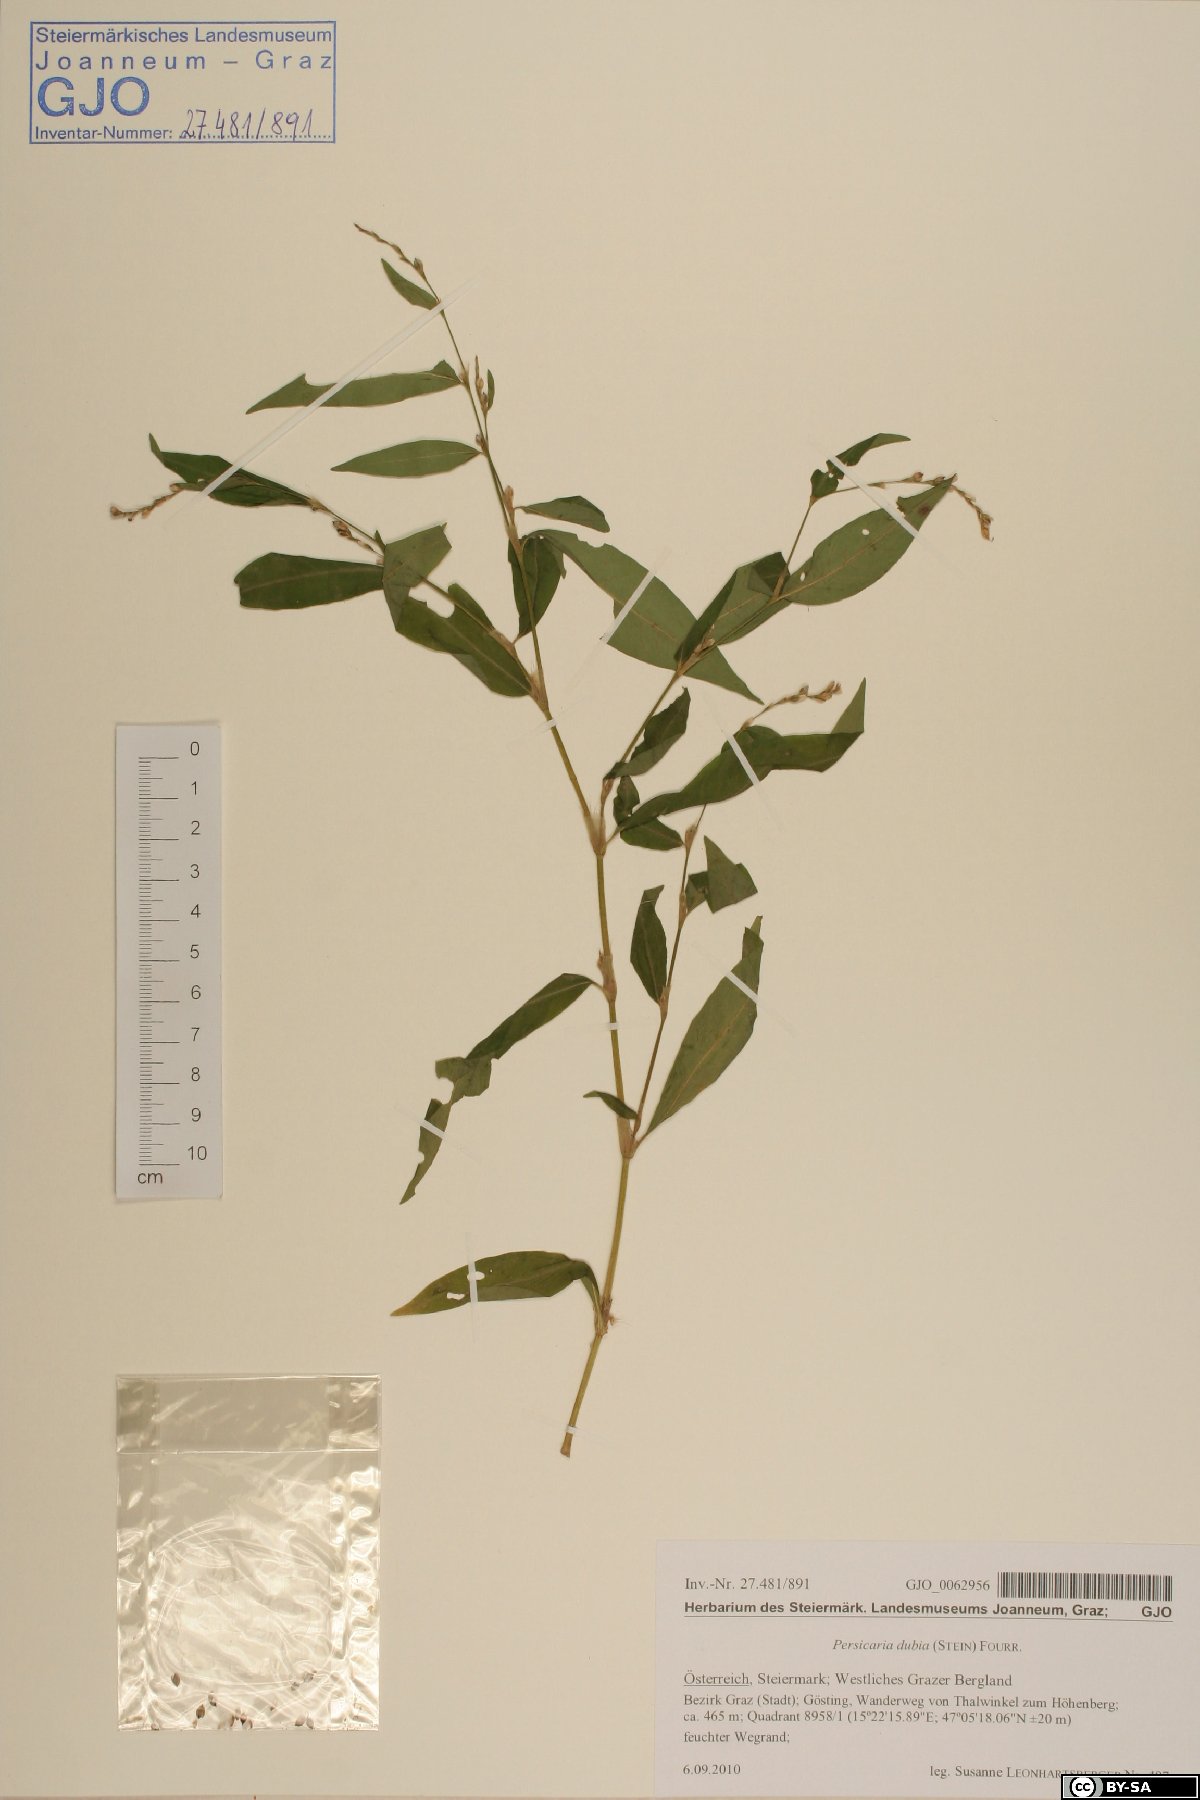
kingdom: Plantae
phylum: Tracheophyta
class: Magnoliopsida
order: Caryophyllales
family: Polygonaceae
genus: Persicaria
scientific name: Persicaria mitis
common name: Tasteless water-pepper
